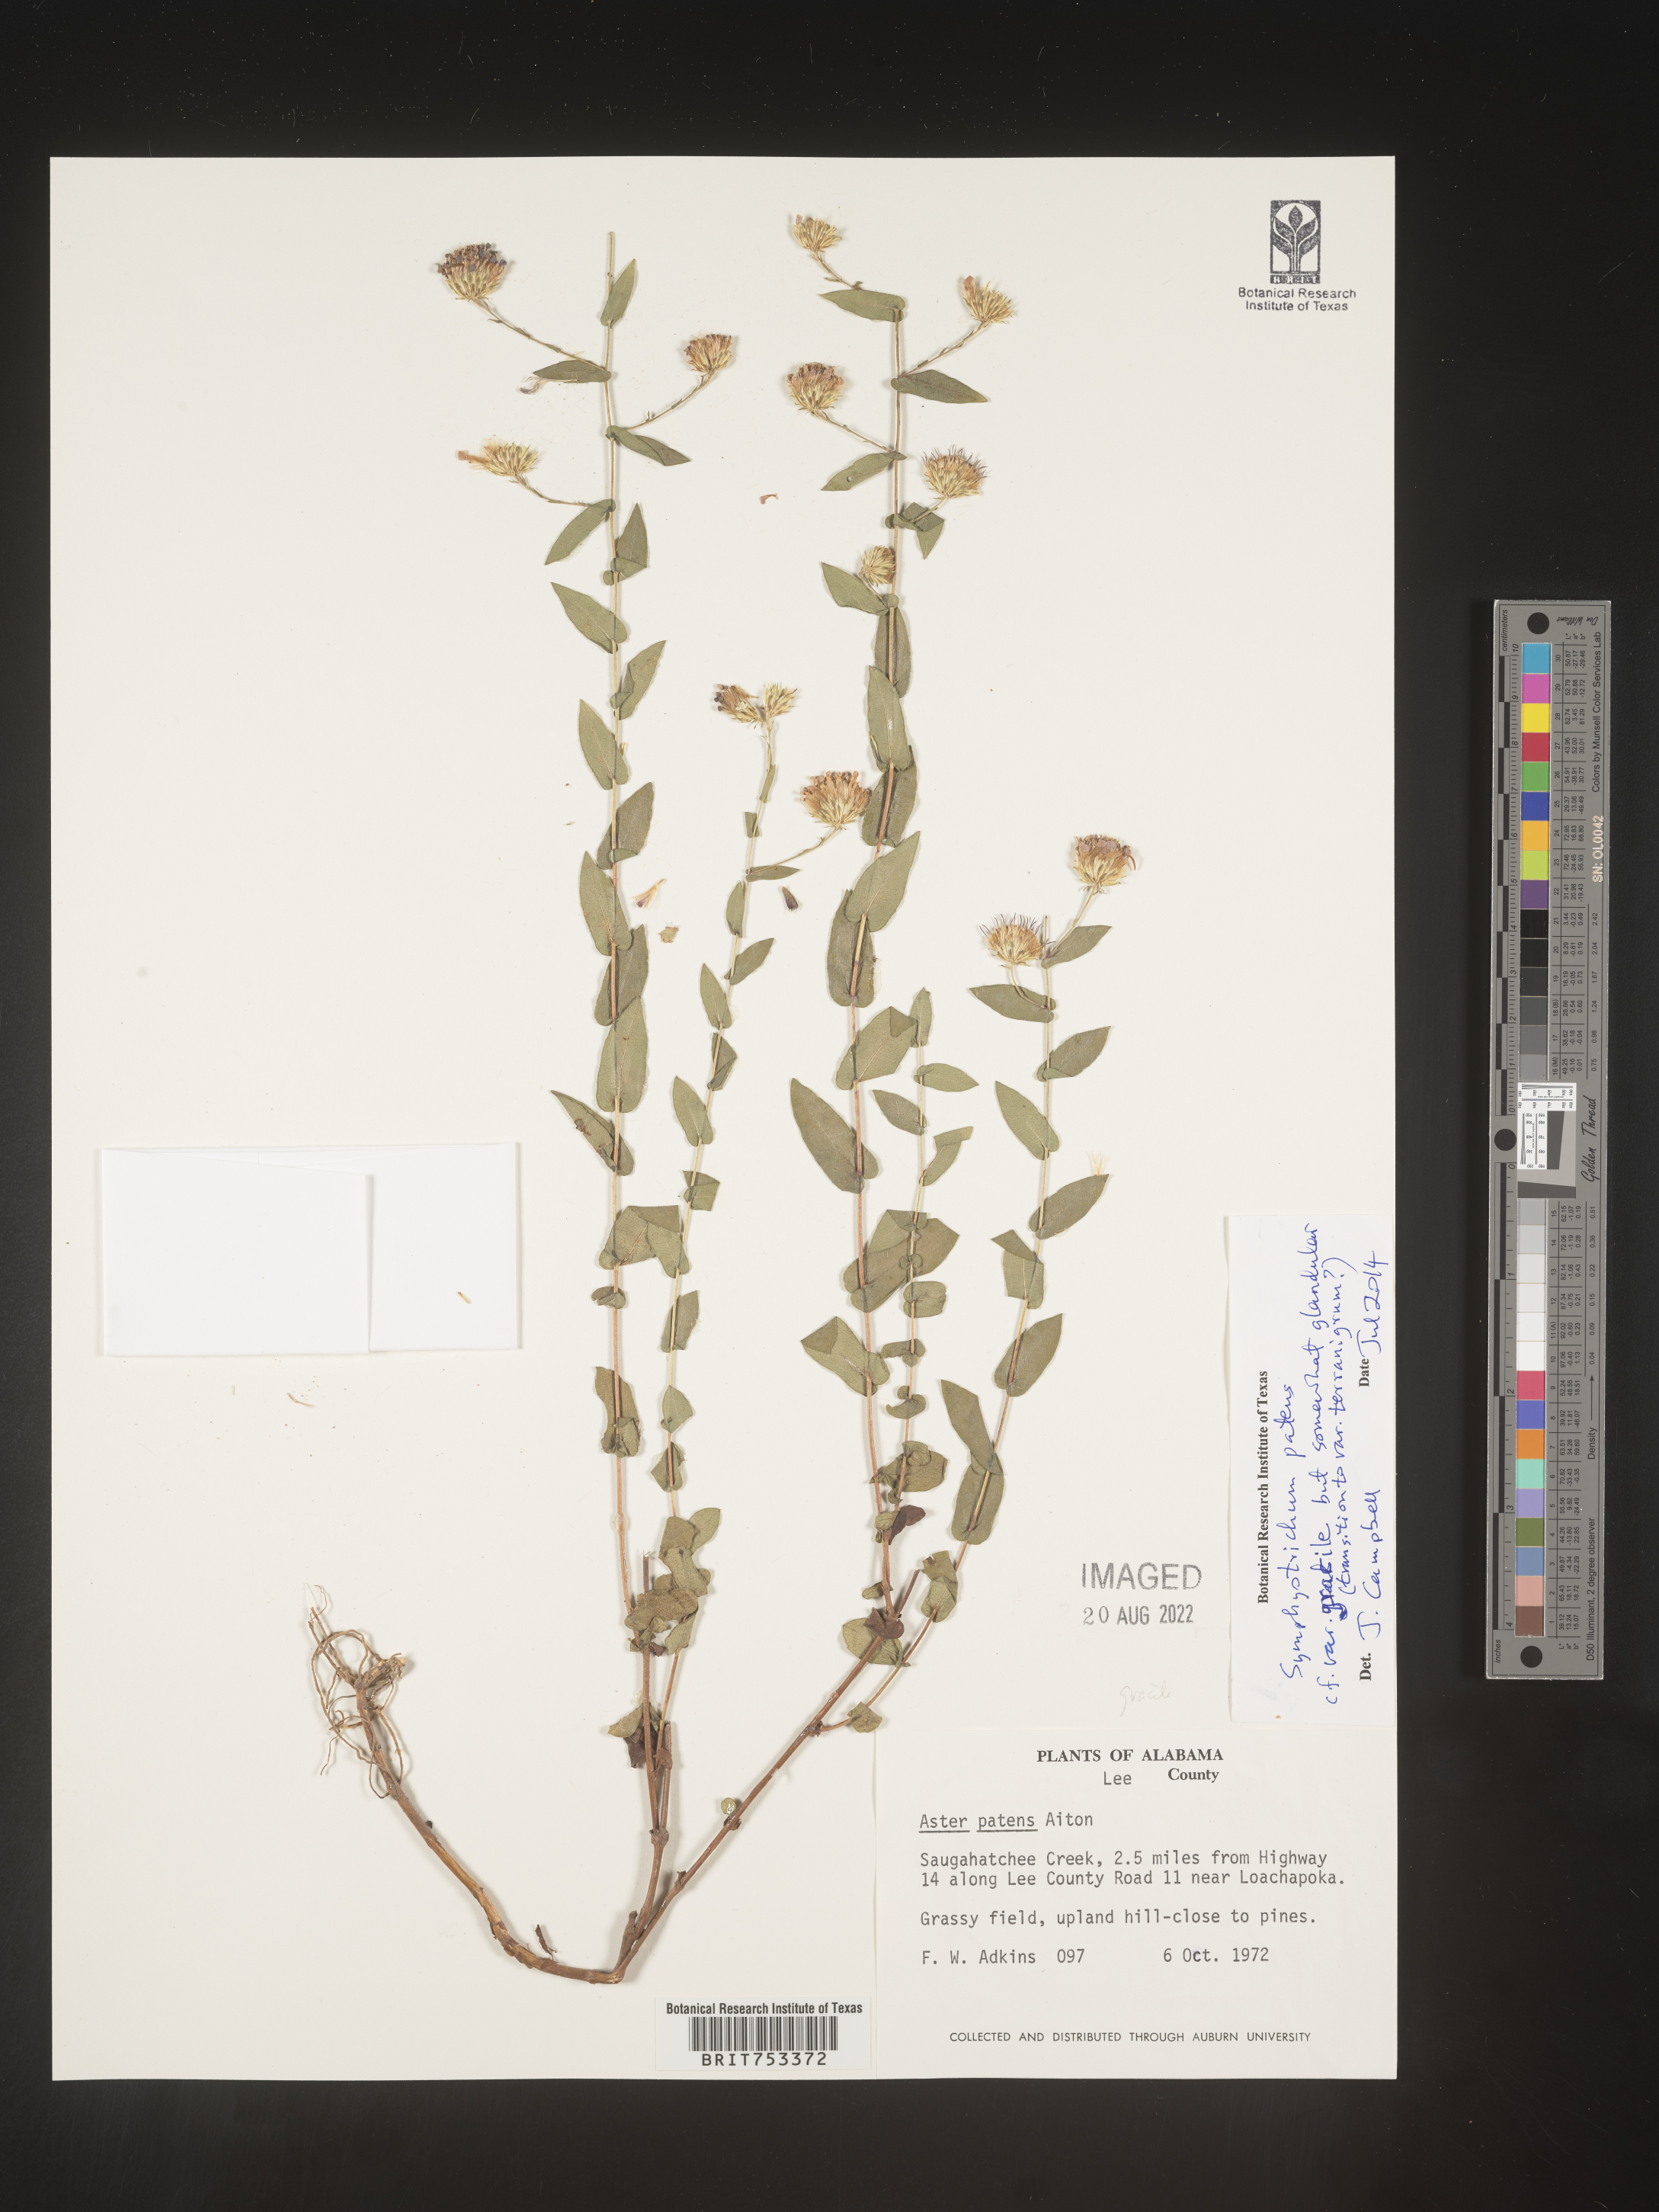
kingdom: Plantae
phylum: Tracheophyta
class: Magnoliopsida
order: Asterales
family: Asteraceae
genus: Symphyotrichum
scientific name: Symphyotrichum patens
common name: Late purple aster
